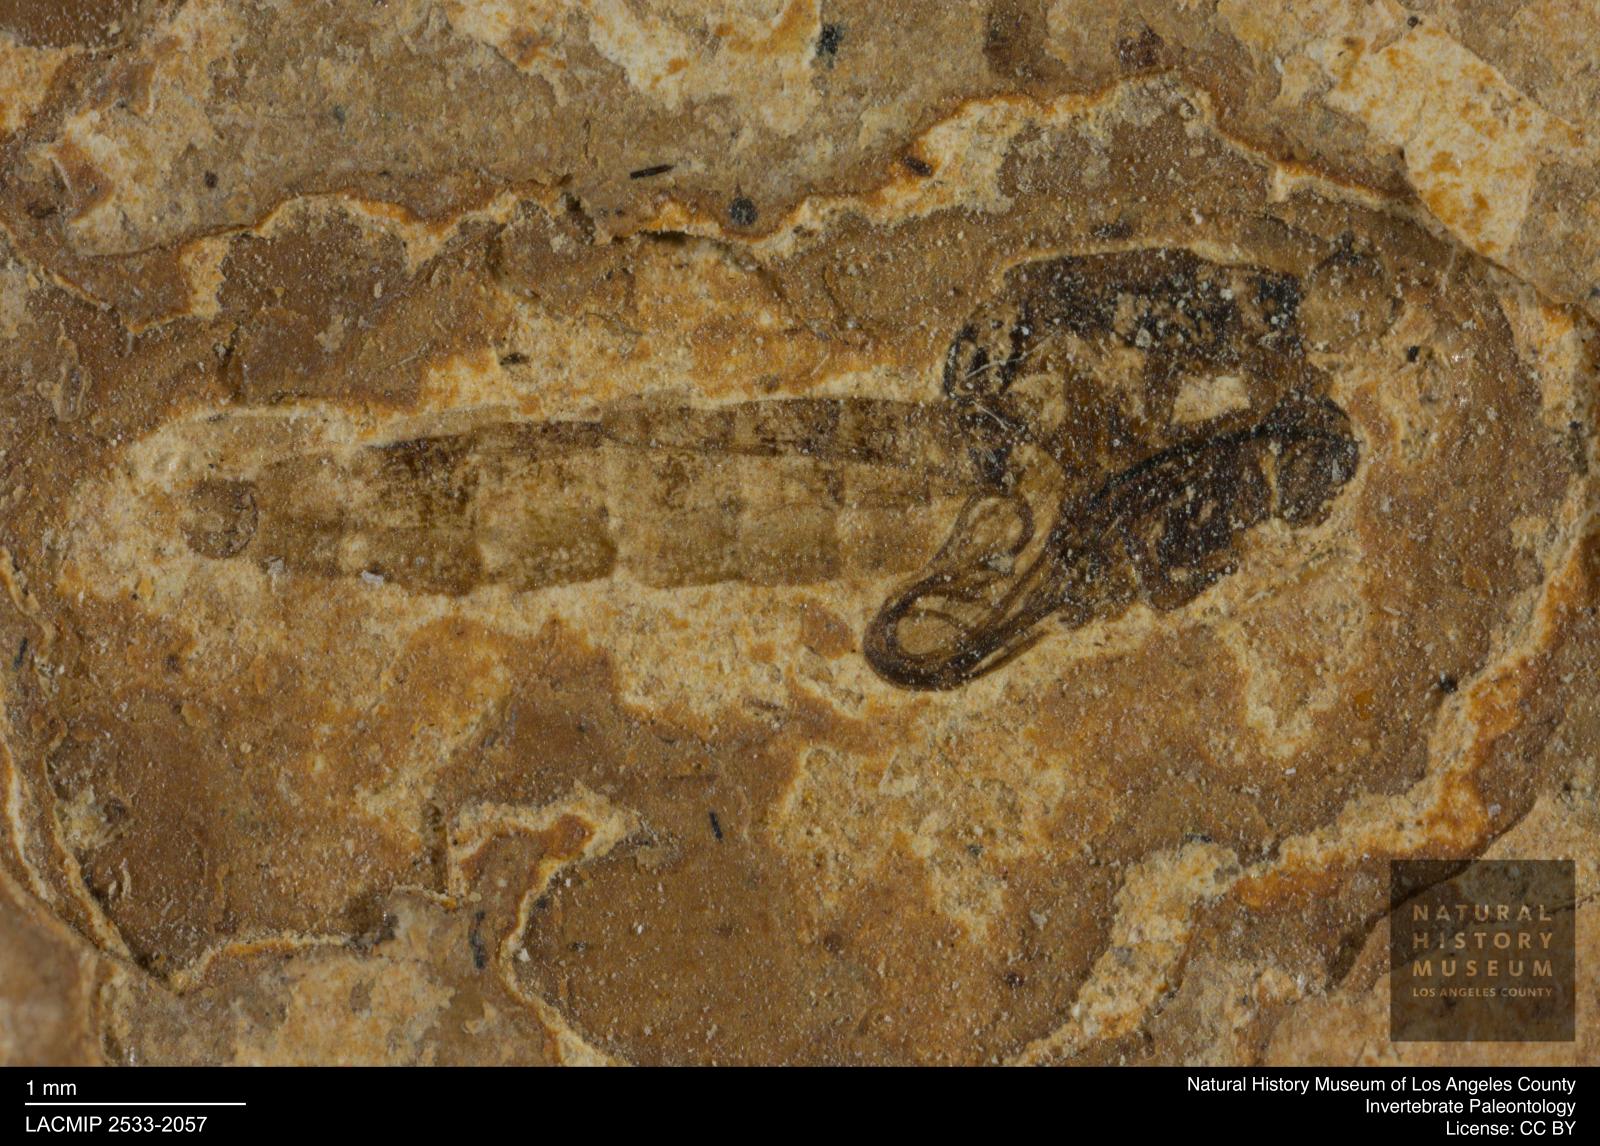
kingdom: Animalia
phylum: Arthropoda
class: Insecta
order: Diptera
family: Chironomidae
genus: Pelopiina
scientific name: Pelopiina
